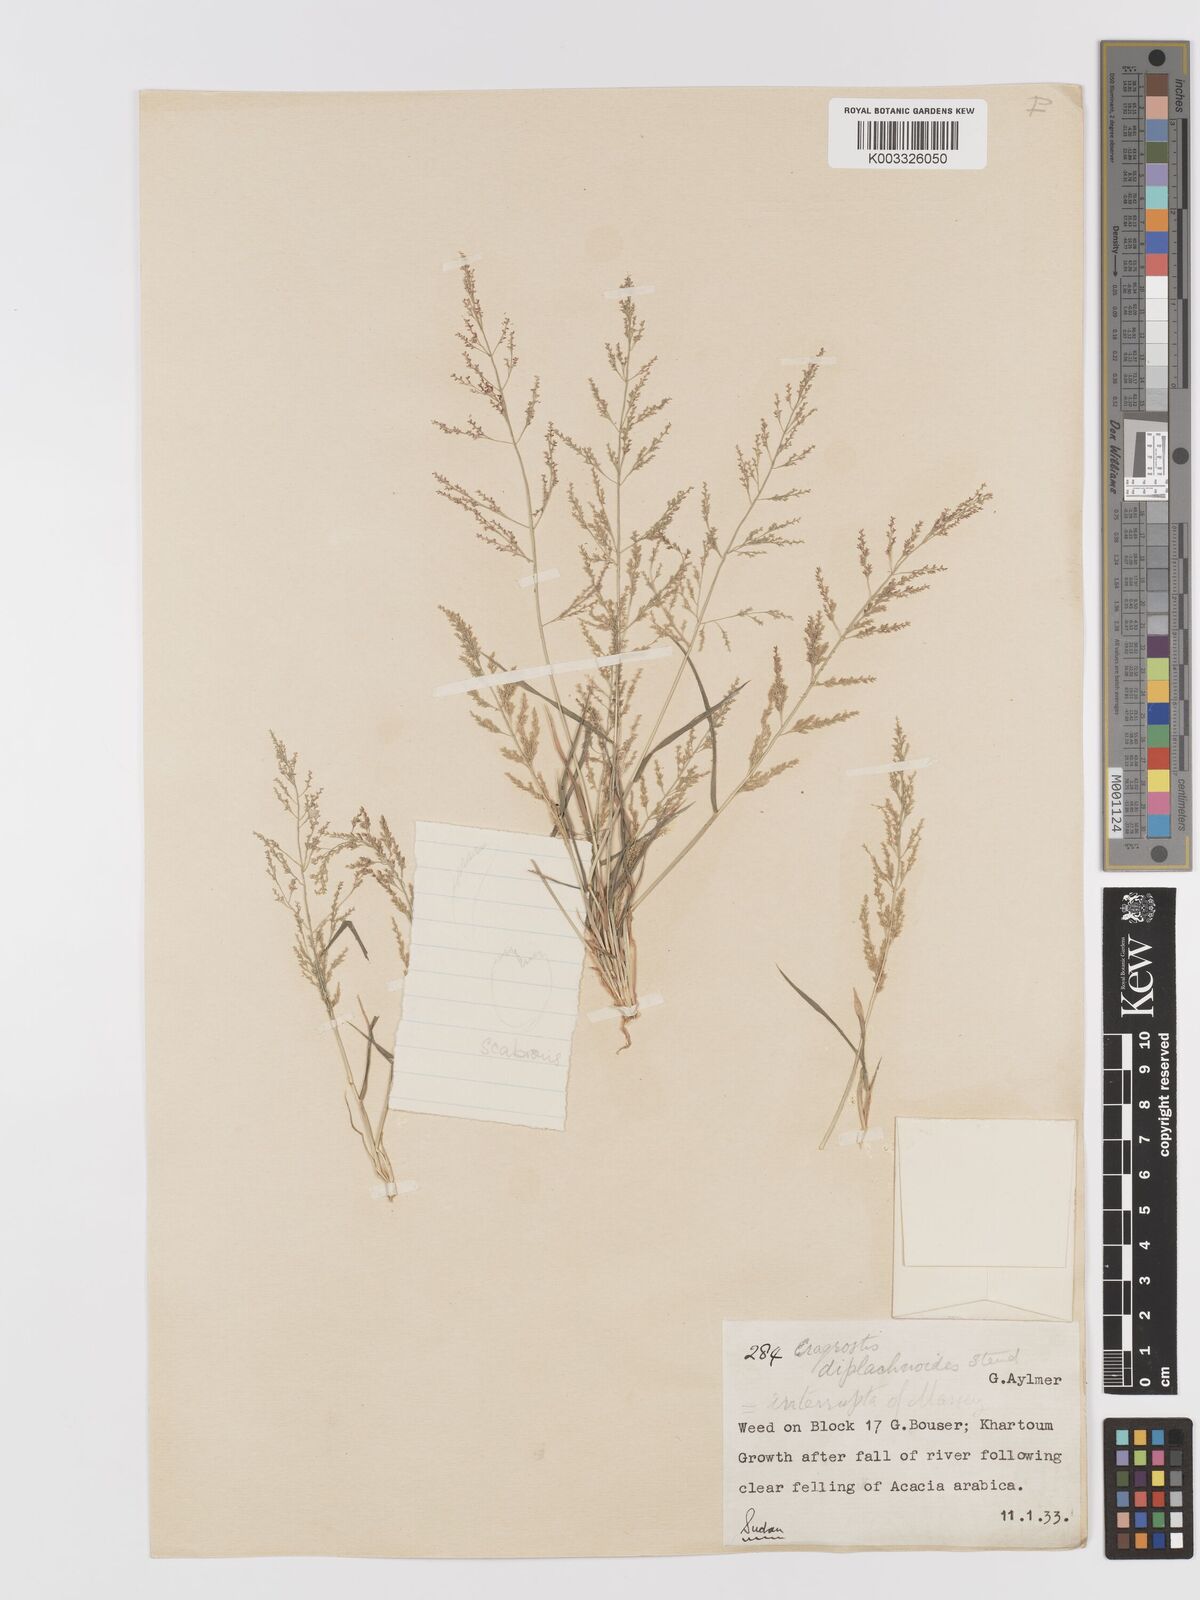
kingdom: Plantae
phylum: Tracheophyta
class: Liliopsida
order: Poales
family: Poaceae
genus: Eragrostis
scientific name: Eragrostis japonica
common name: Pond lovegrass
